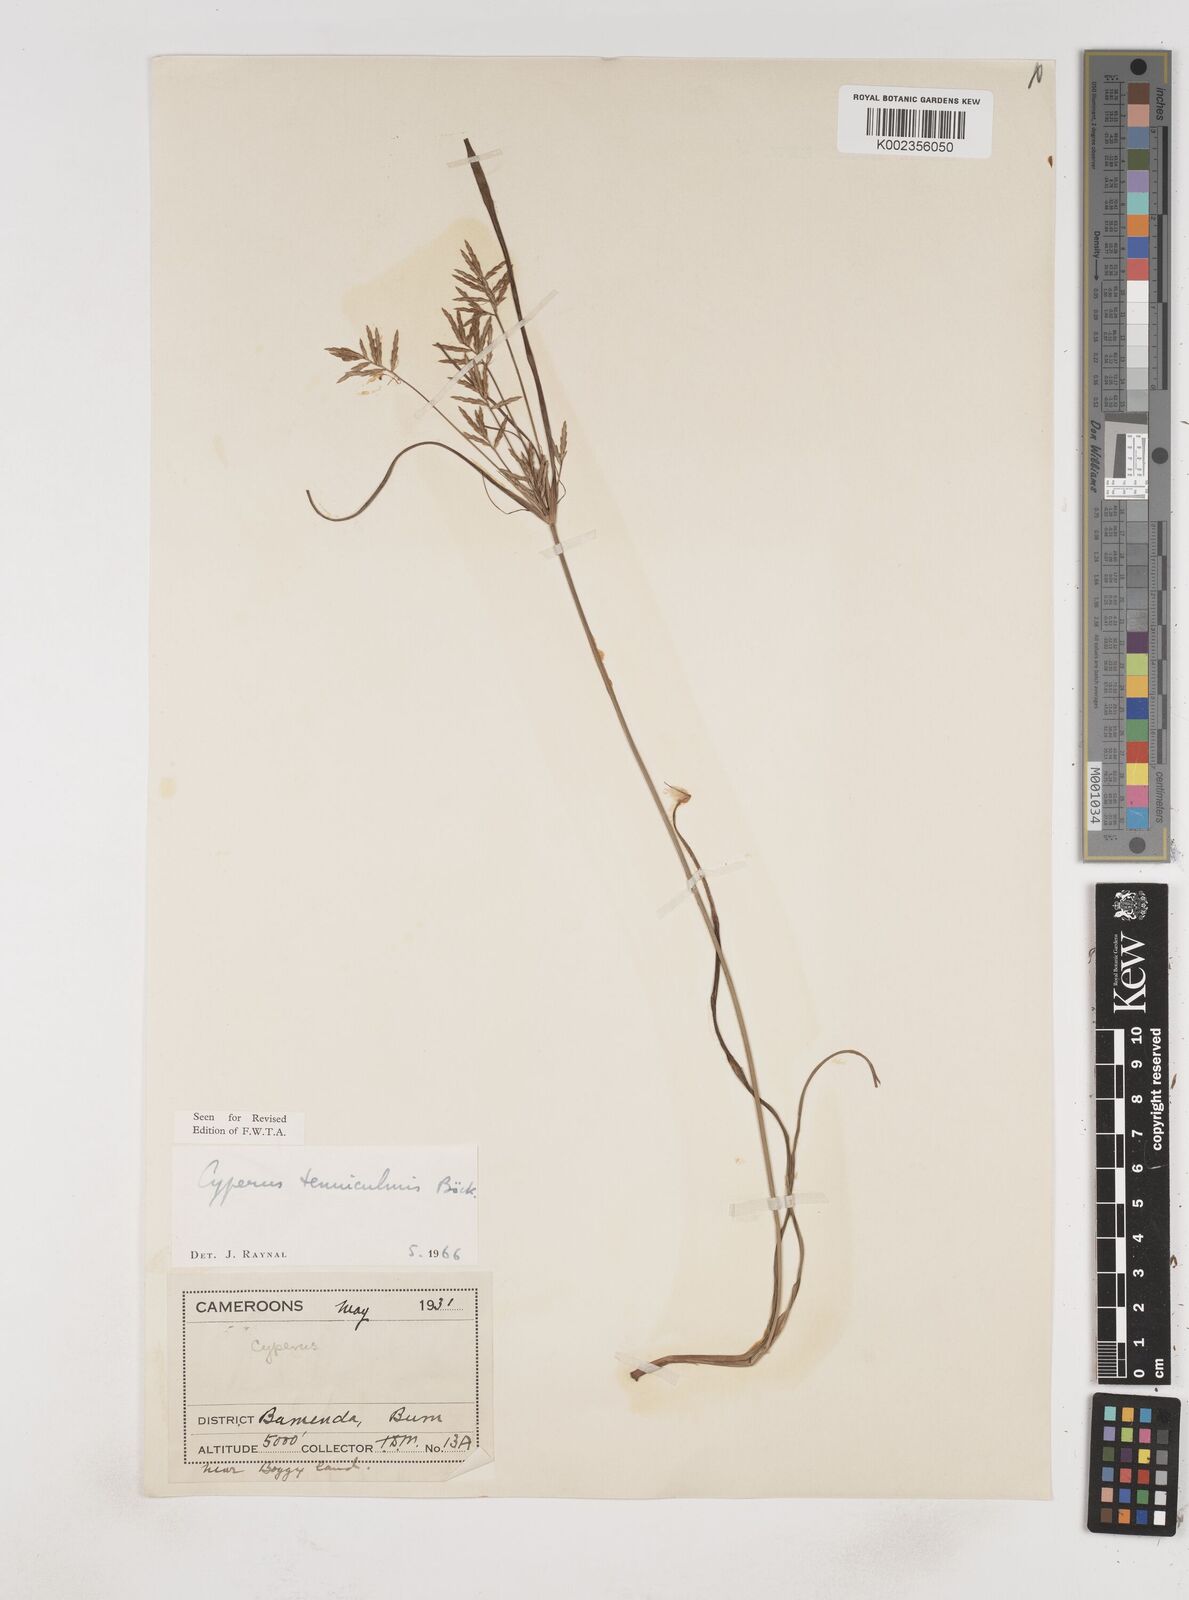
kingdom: Plantae
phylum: Tracheophyta
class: Liliopsida
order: Poales
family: Cyperaceae
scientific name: Cyperaceae
